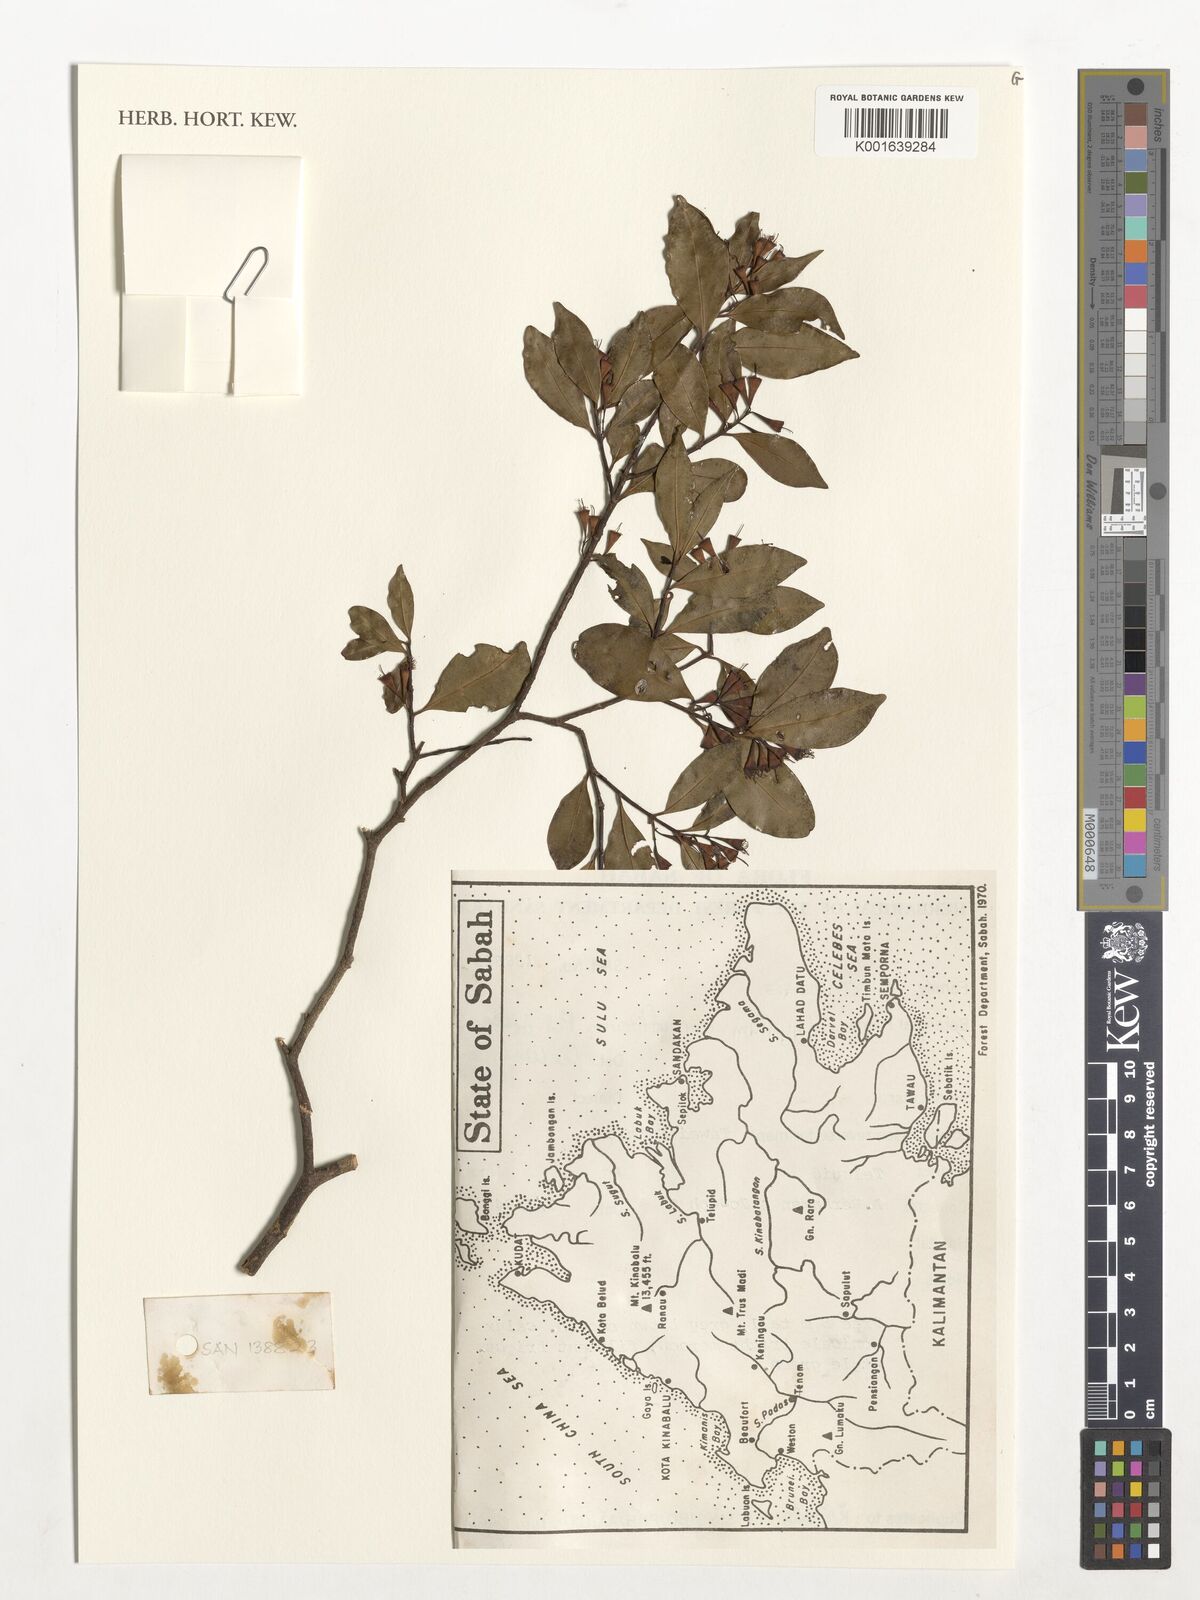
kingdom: Plantae
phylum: Tracheophyta
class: Magnoliopsida
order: Myrtales
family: Myrtaceae
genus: Syzygium
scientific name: Syzygium cornuflorum
